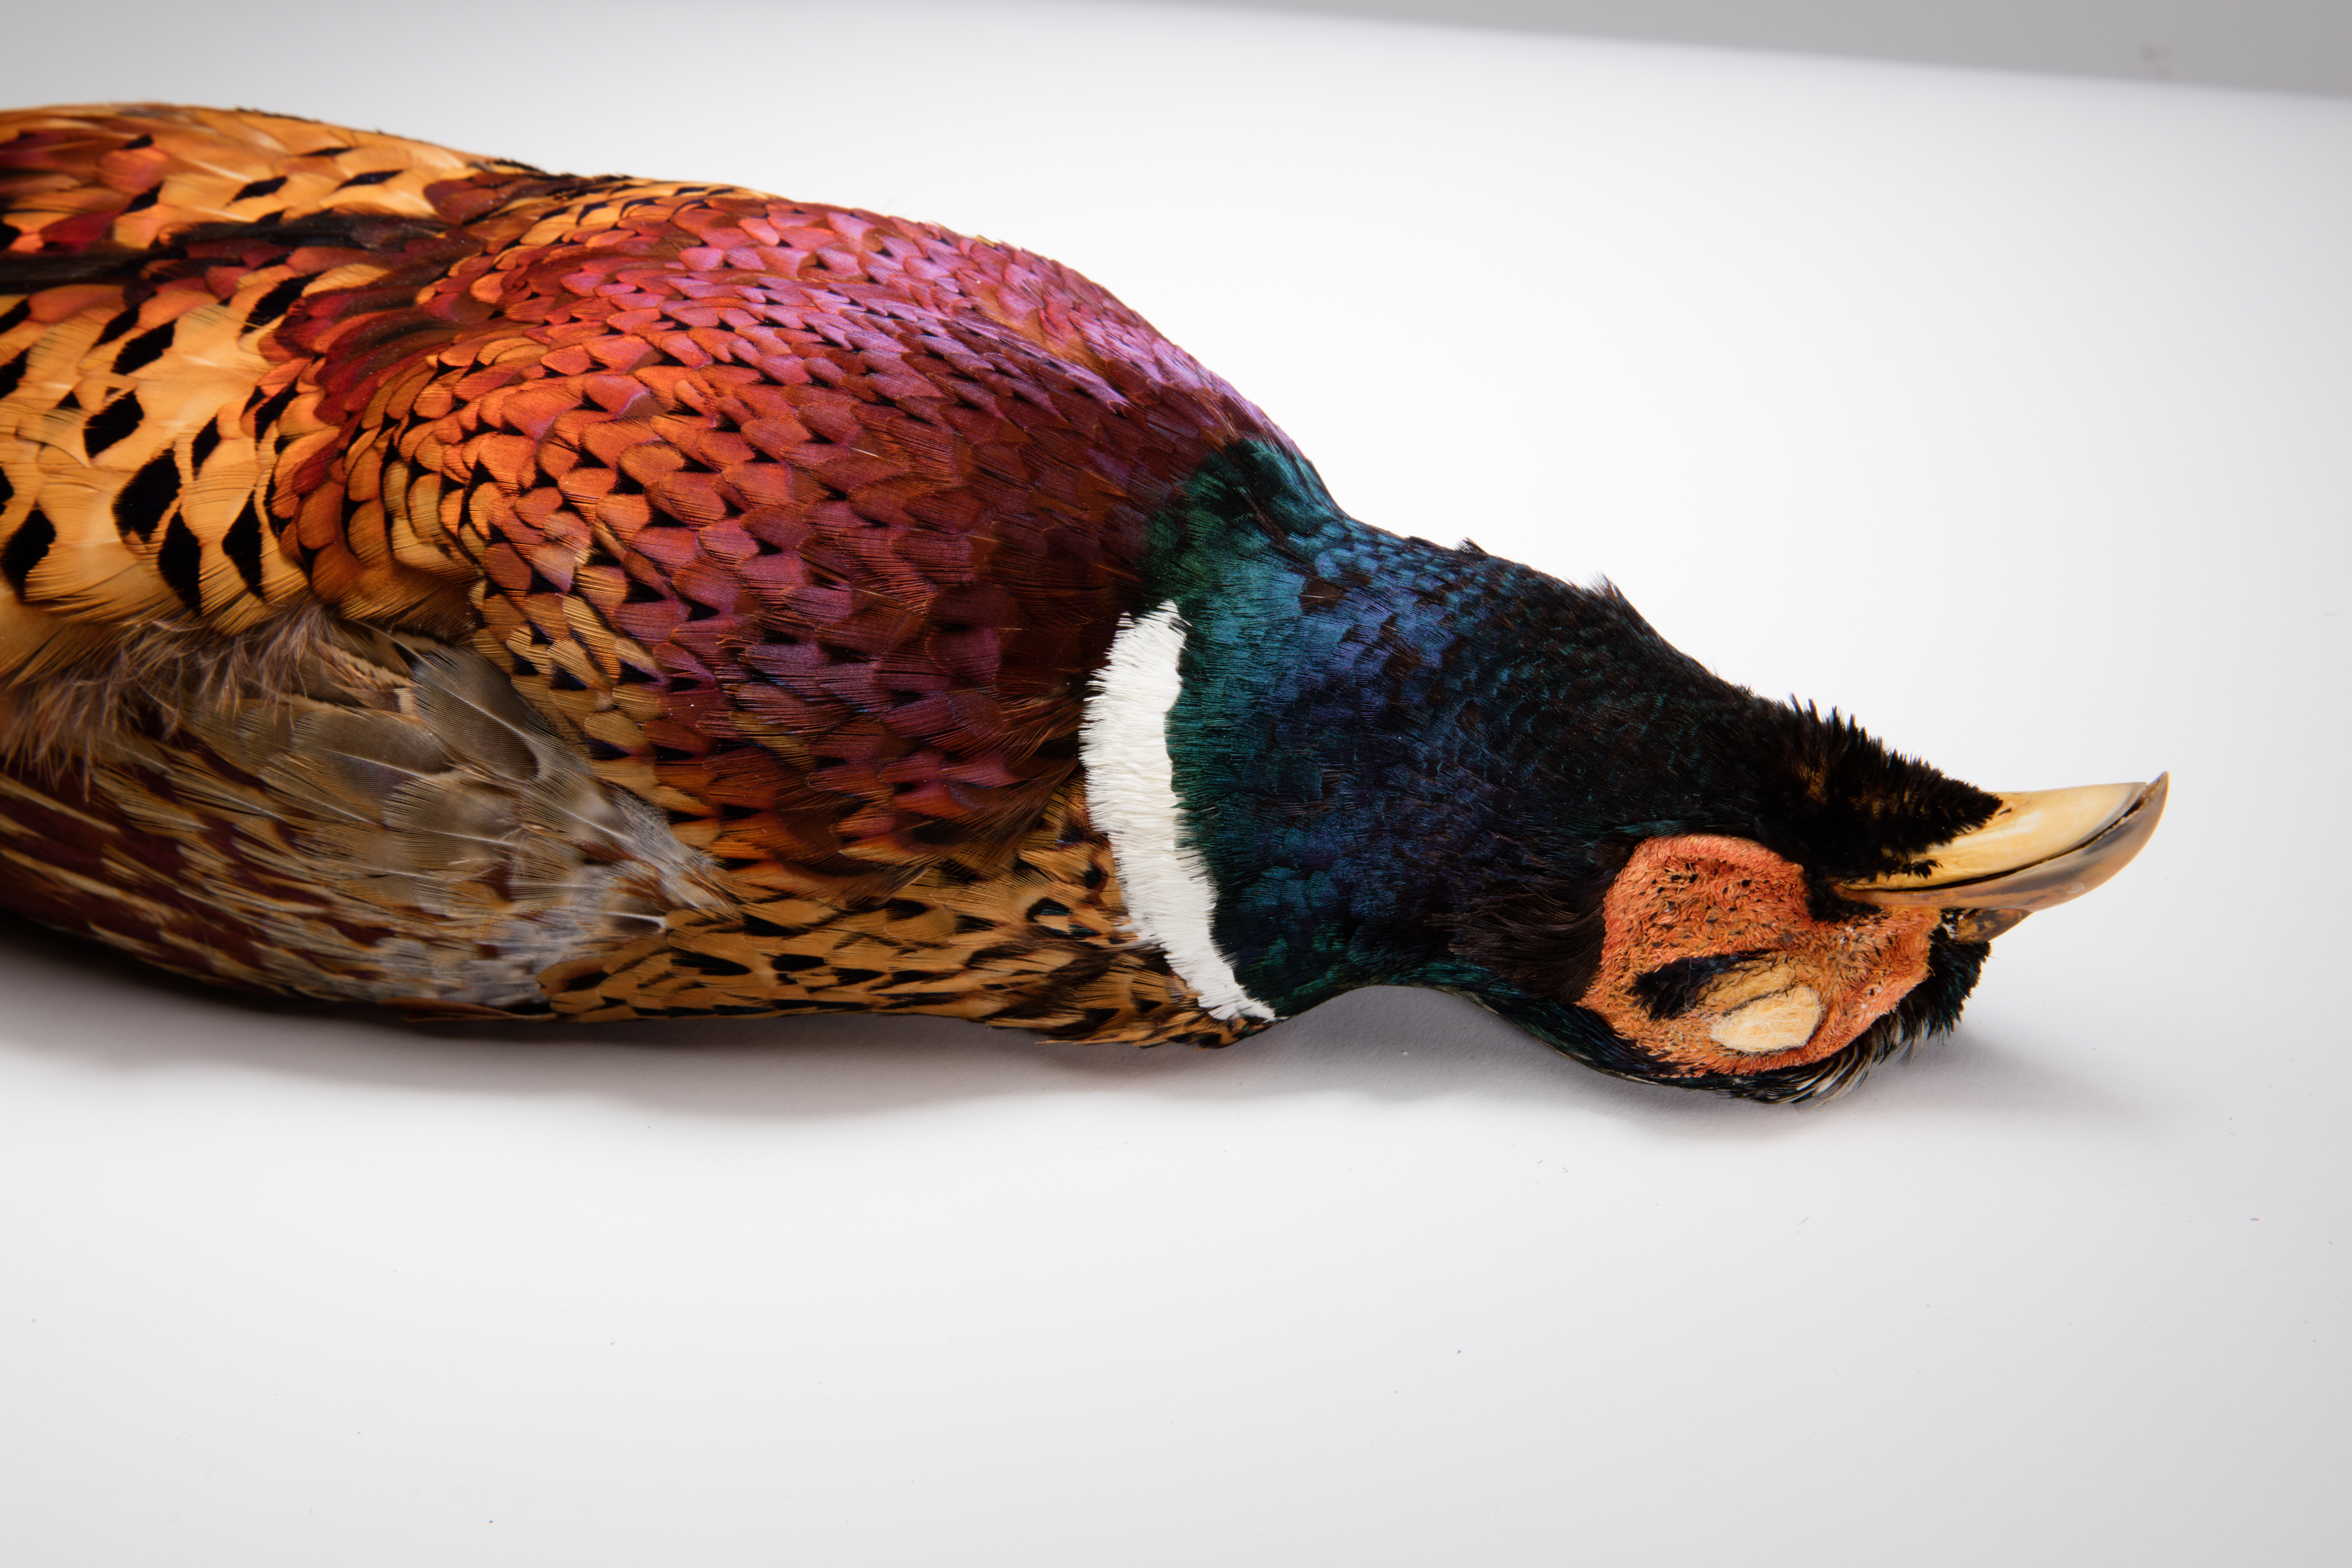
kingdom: Animalia
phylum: Chordata
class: Aves
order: Galliformes
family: Phasianidae
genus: Phasianus
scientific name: Phasianus colchicus
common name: Common pheasant
